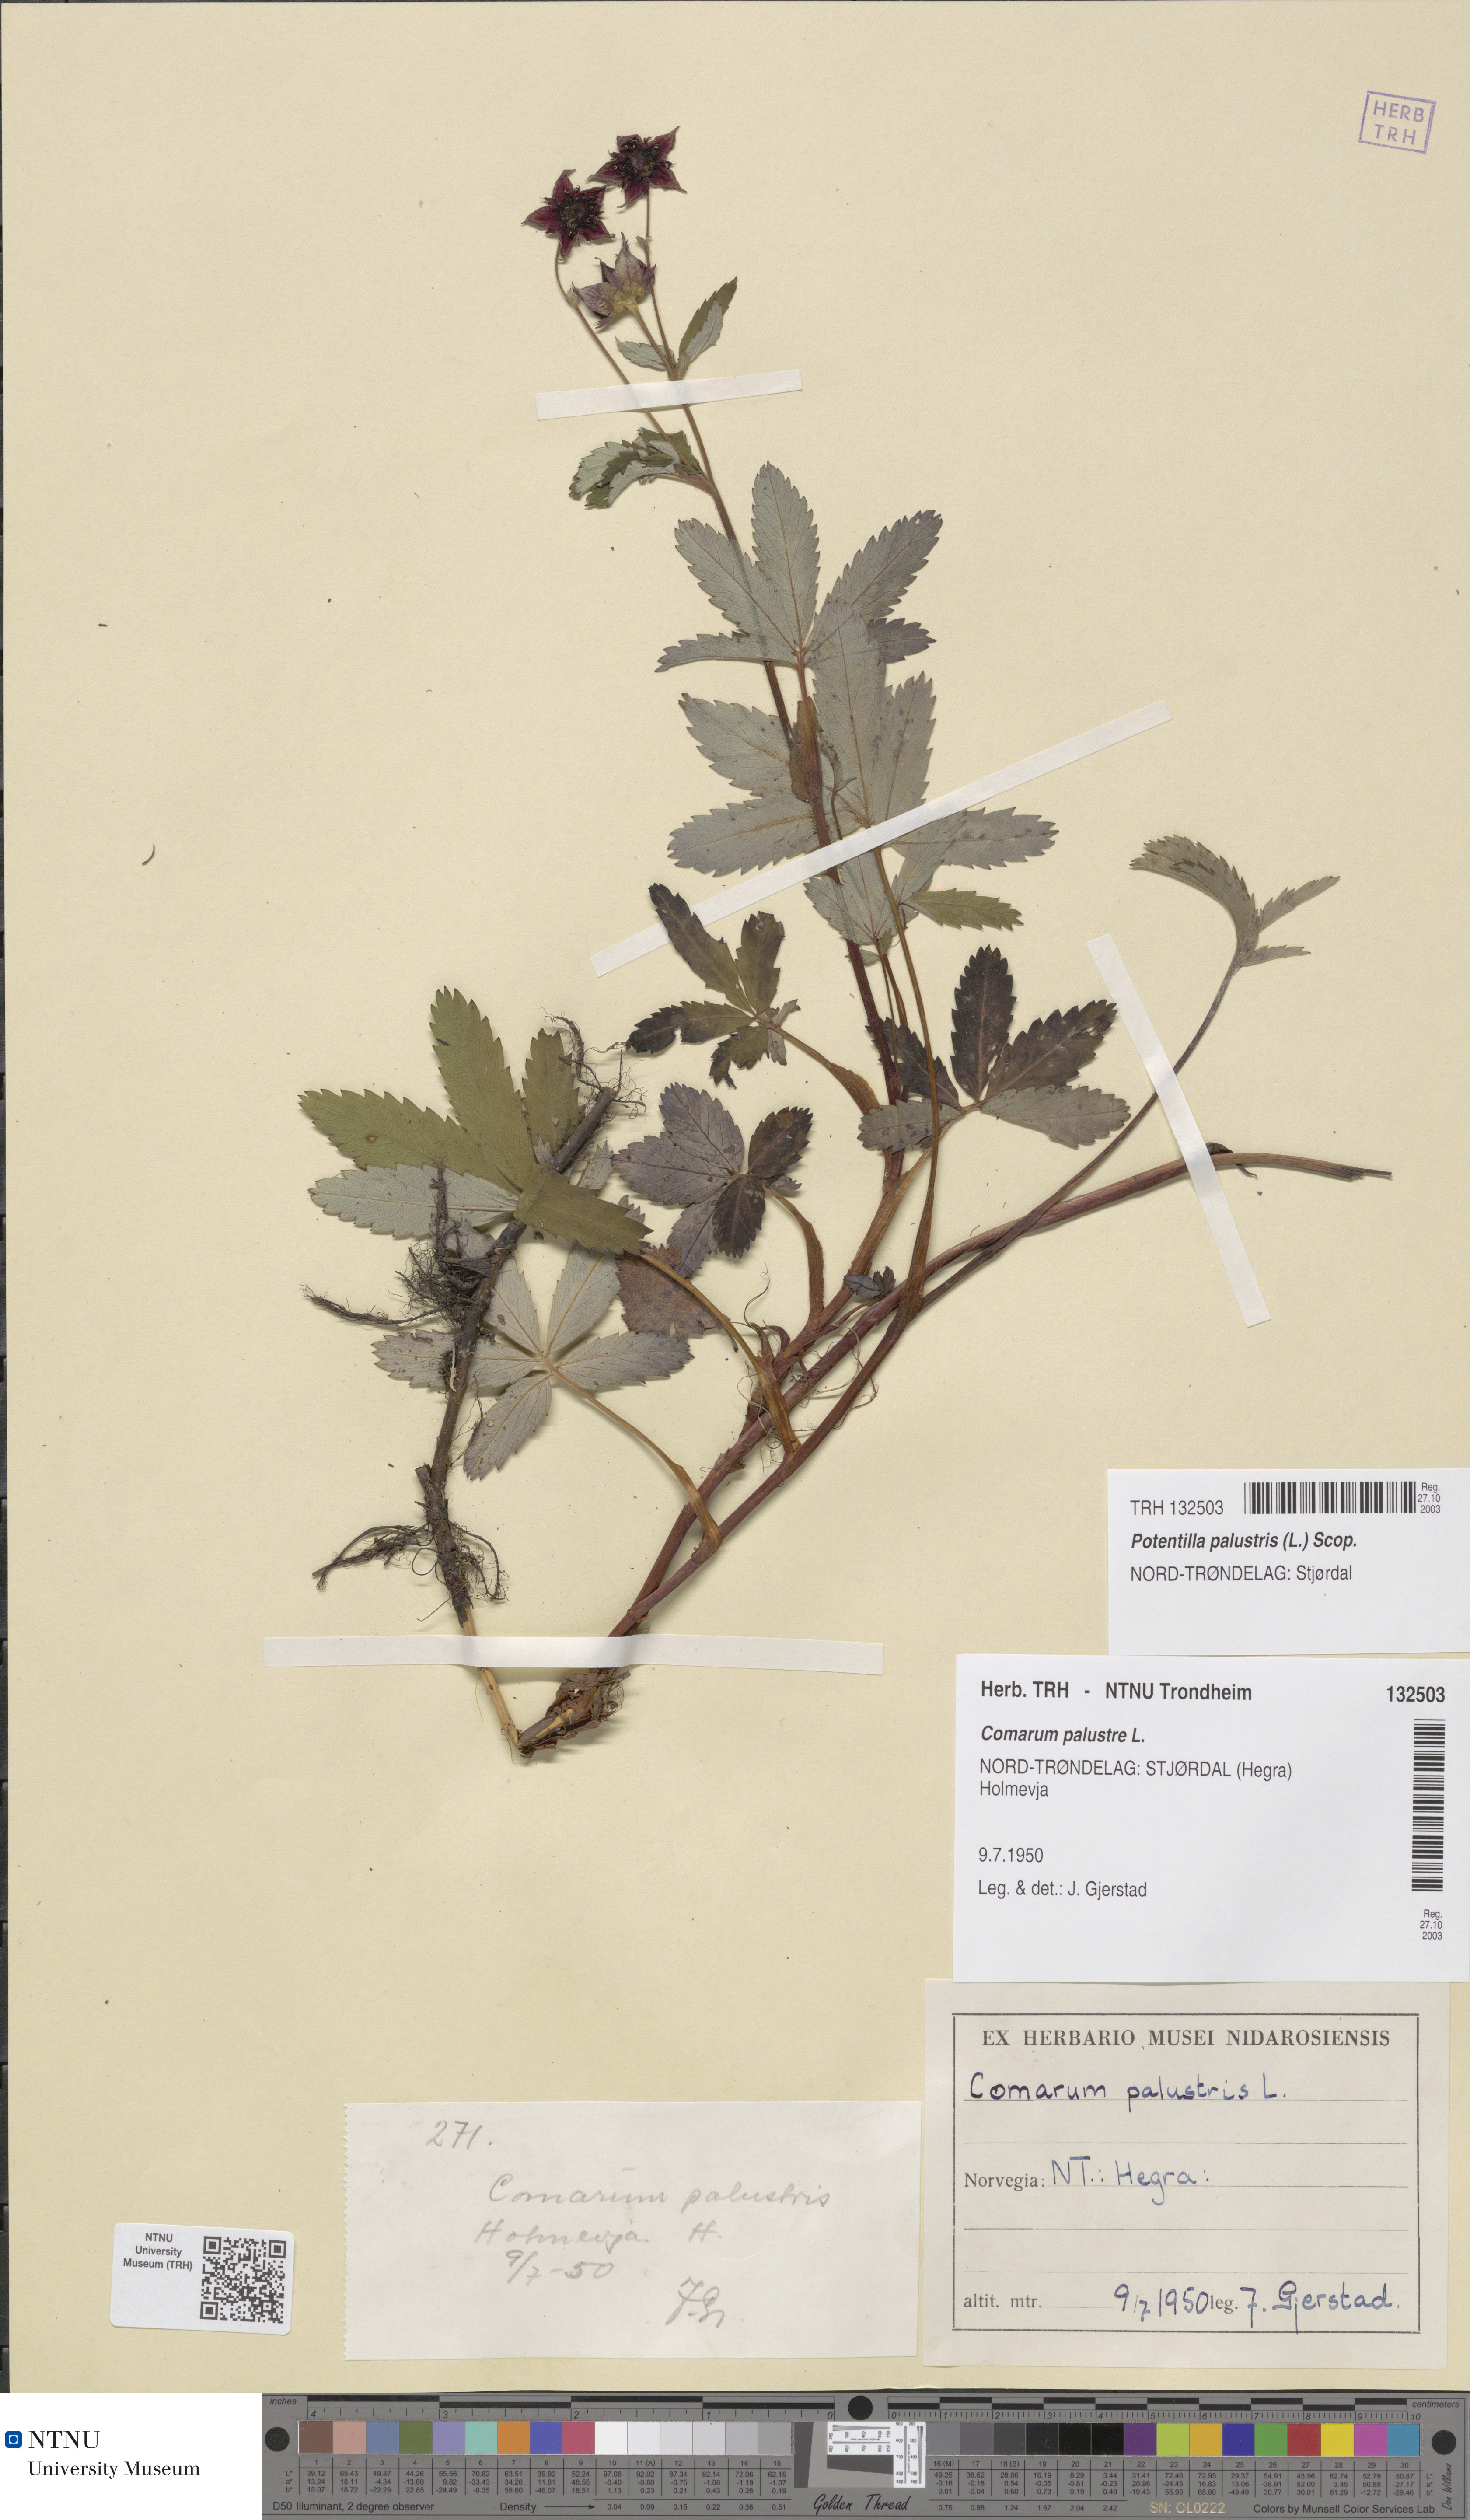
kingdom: Plantae
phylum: Tracheophyta
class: Magnoliopsida
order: Rosales
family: Rosaceae
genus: Comarum
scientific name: Comarum palustre
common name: Marsh cinquefoil
